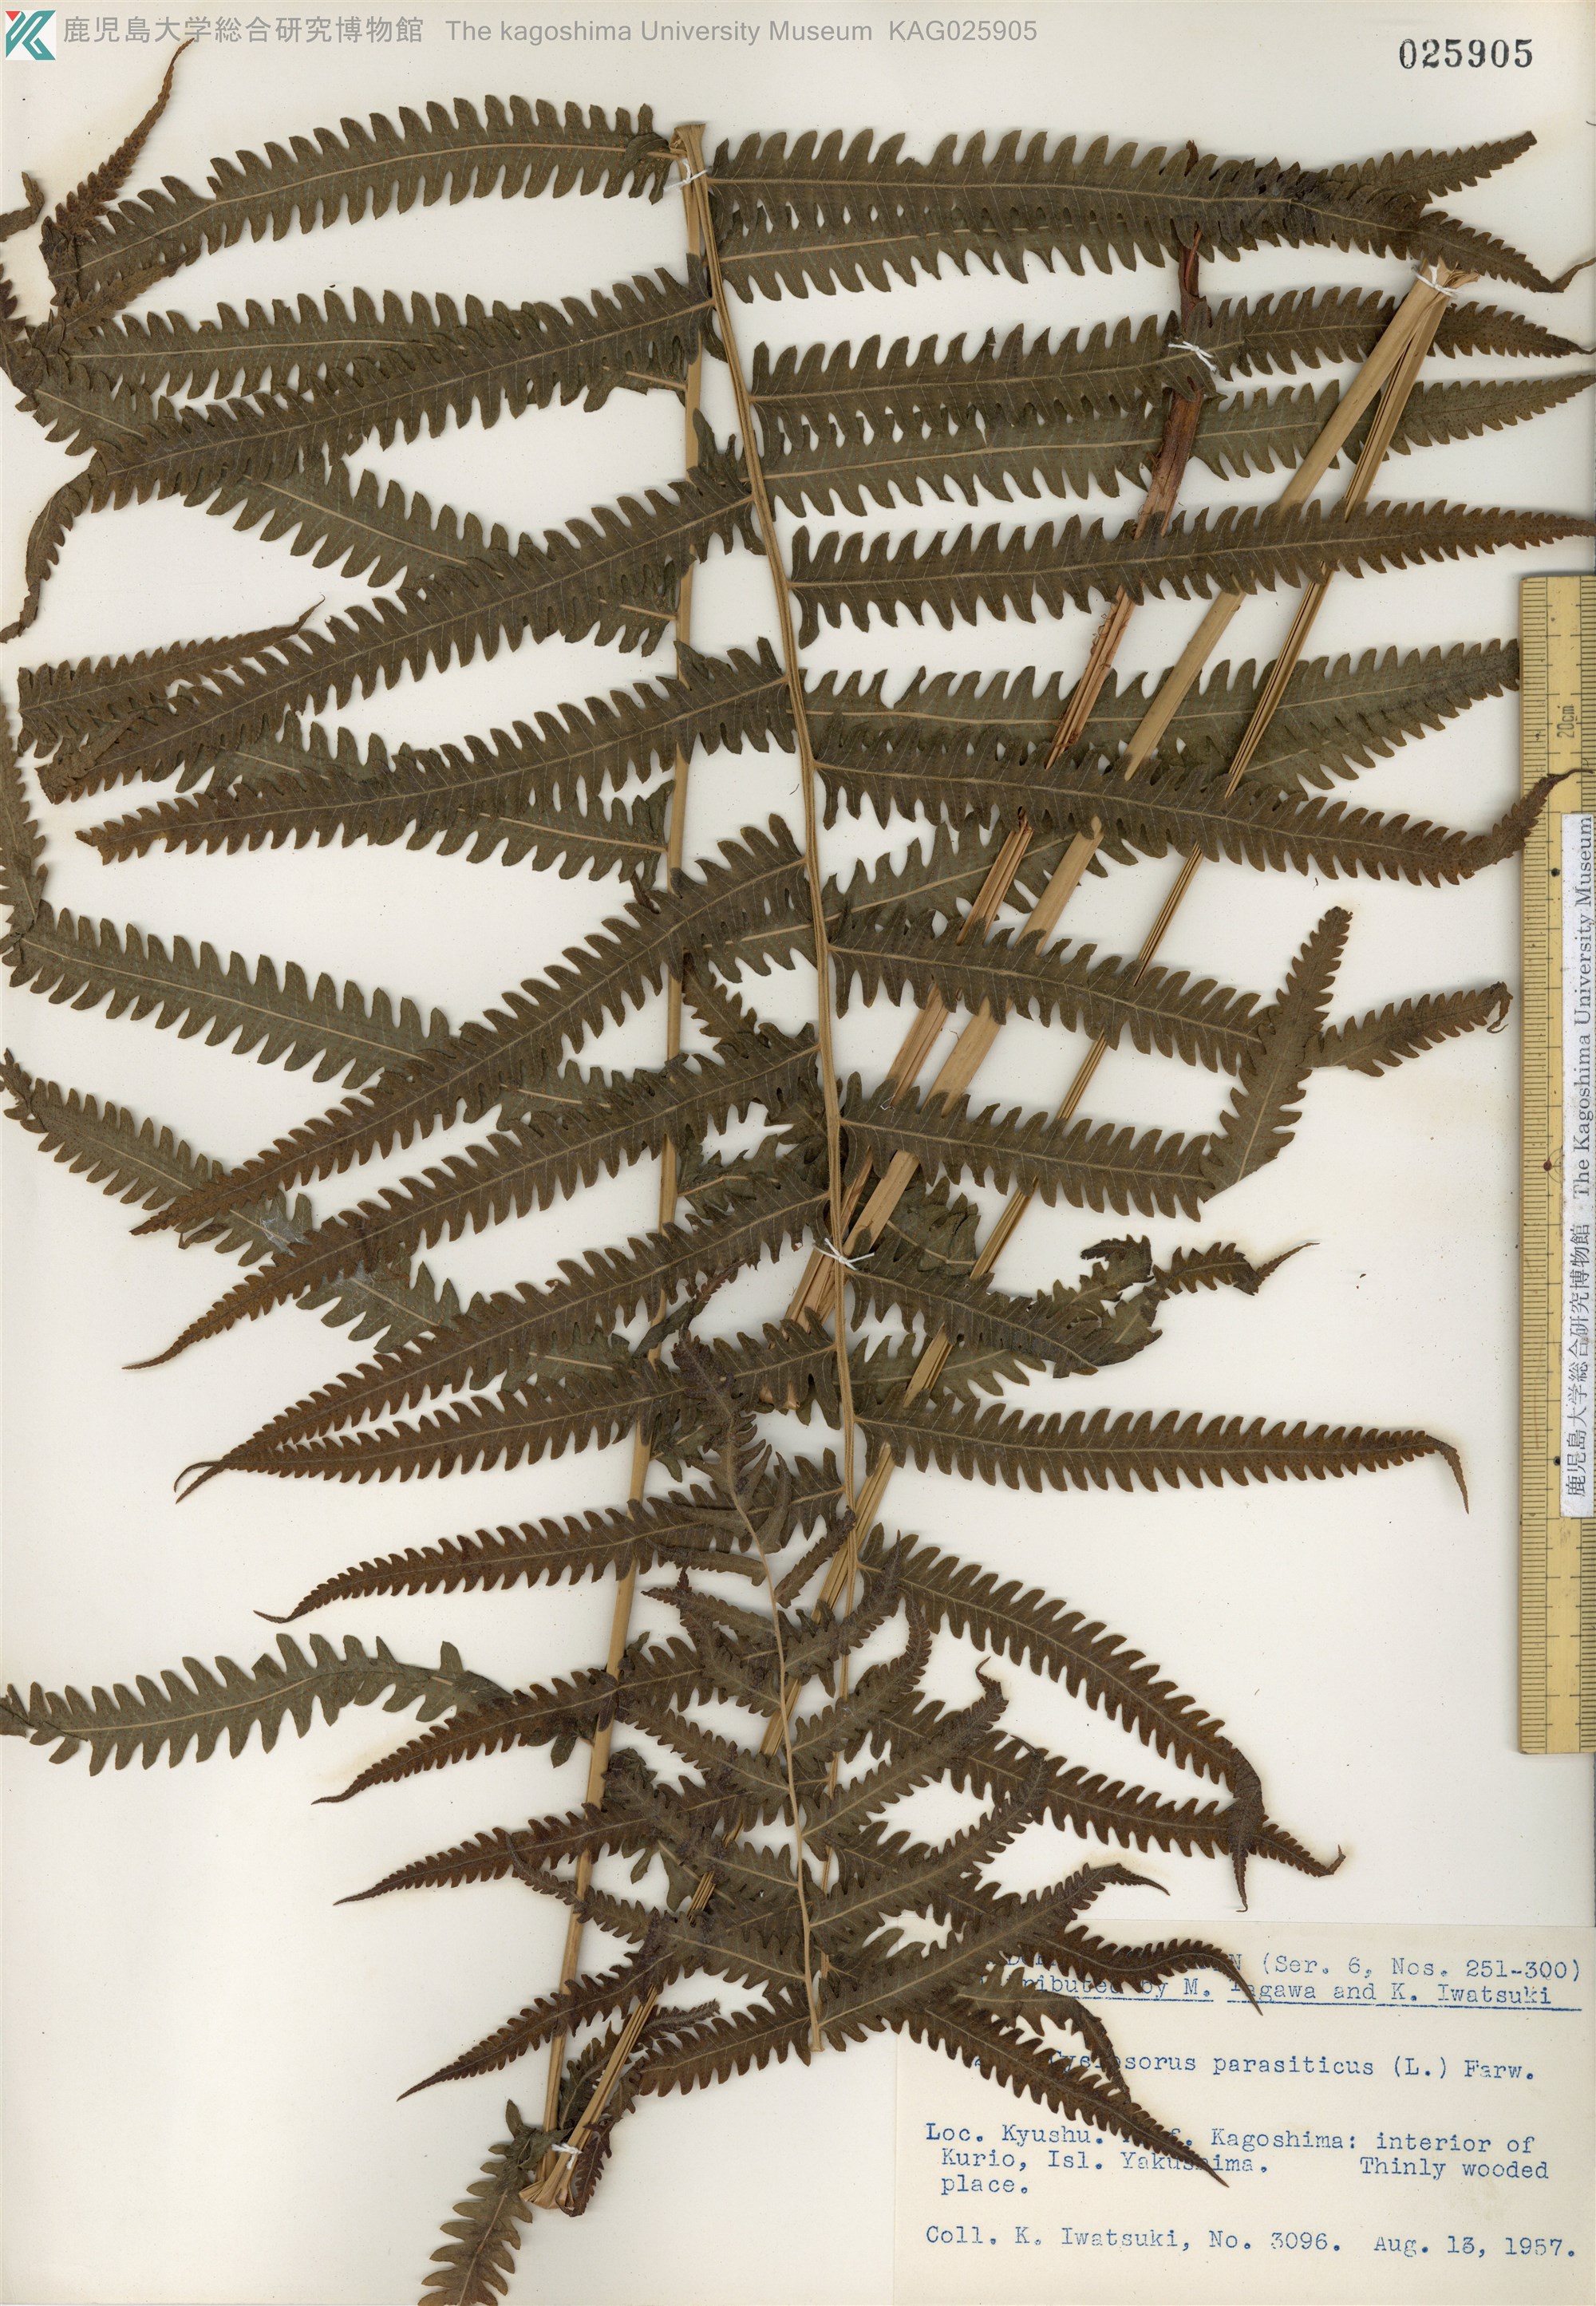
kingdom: Plantae
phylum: Tracheophyta
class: Polypodiopsida
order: Polypodiales
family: Thelypteridaceae
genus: Christella
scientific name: Christella parasitica
